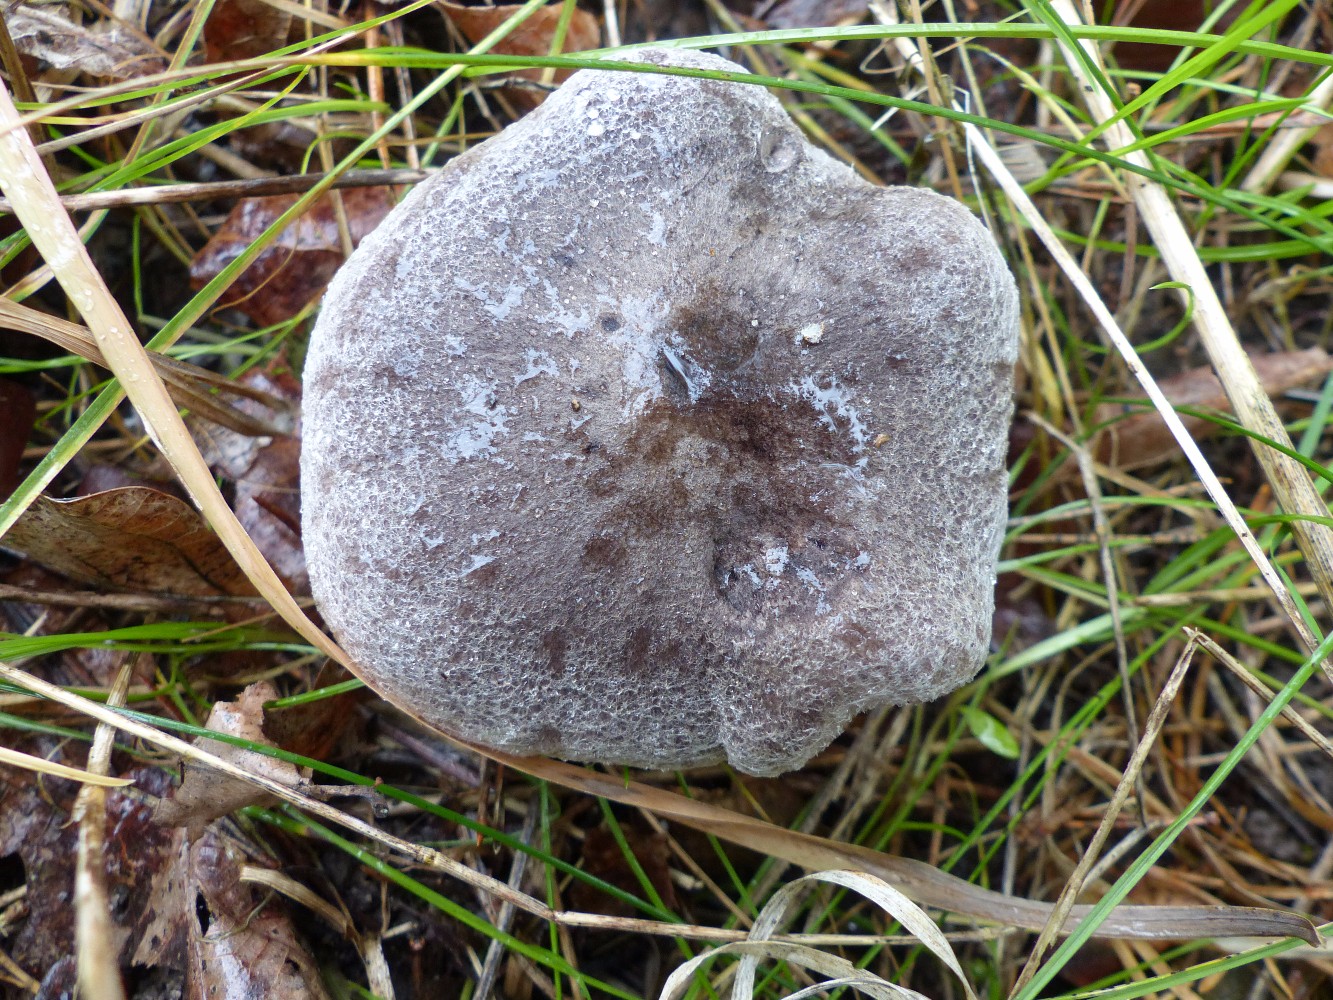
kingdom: Fungi
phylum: Basidiomycota
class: Agaricomycetes
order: Agaricales
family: Tricholomataceae
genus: Tricholoma
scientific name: Tricholoma terreum
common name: jordfarvet ridderhat
